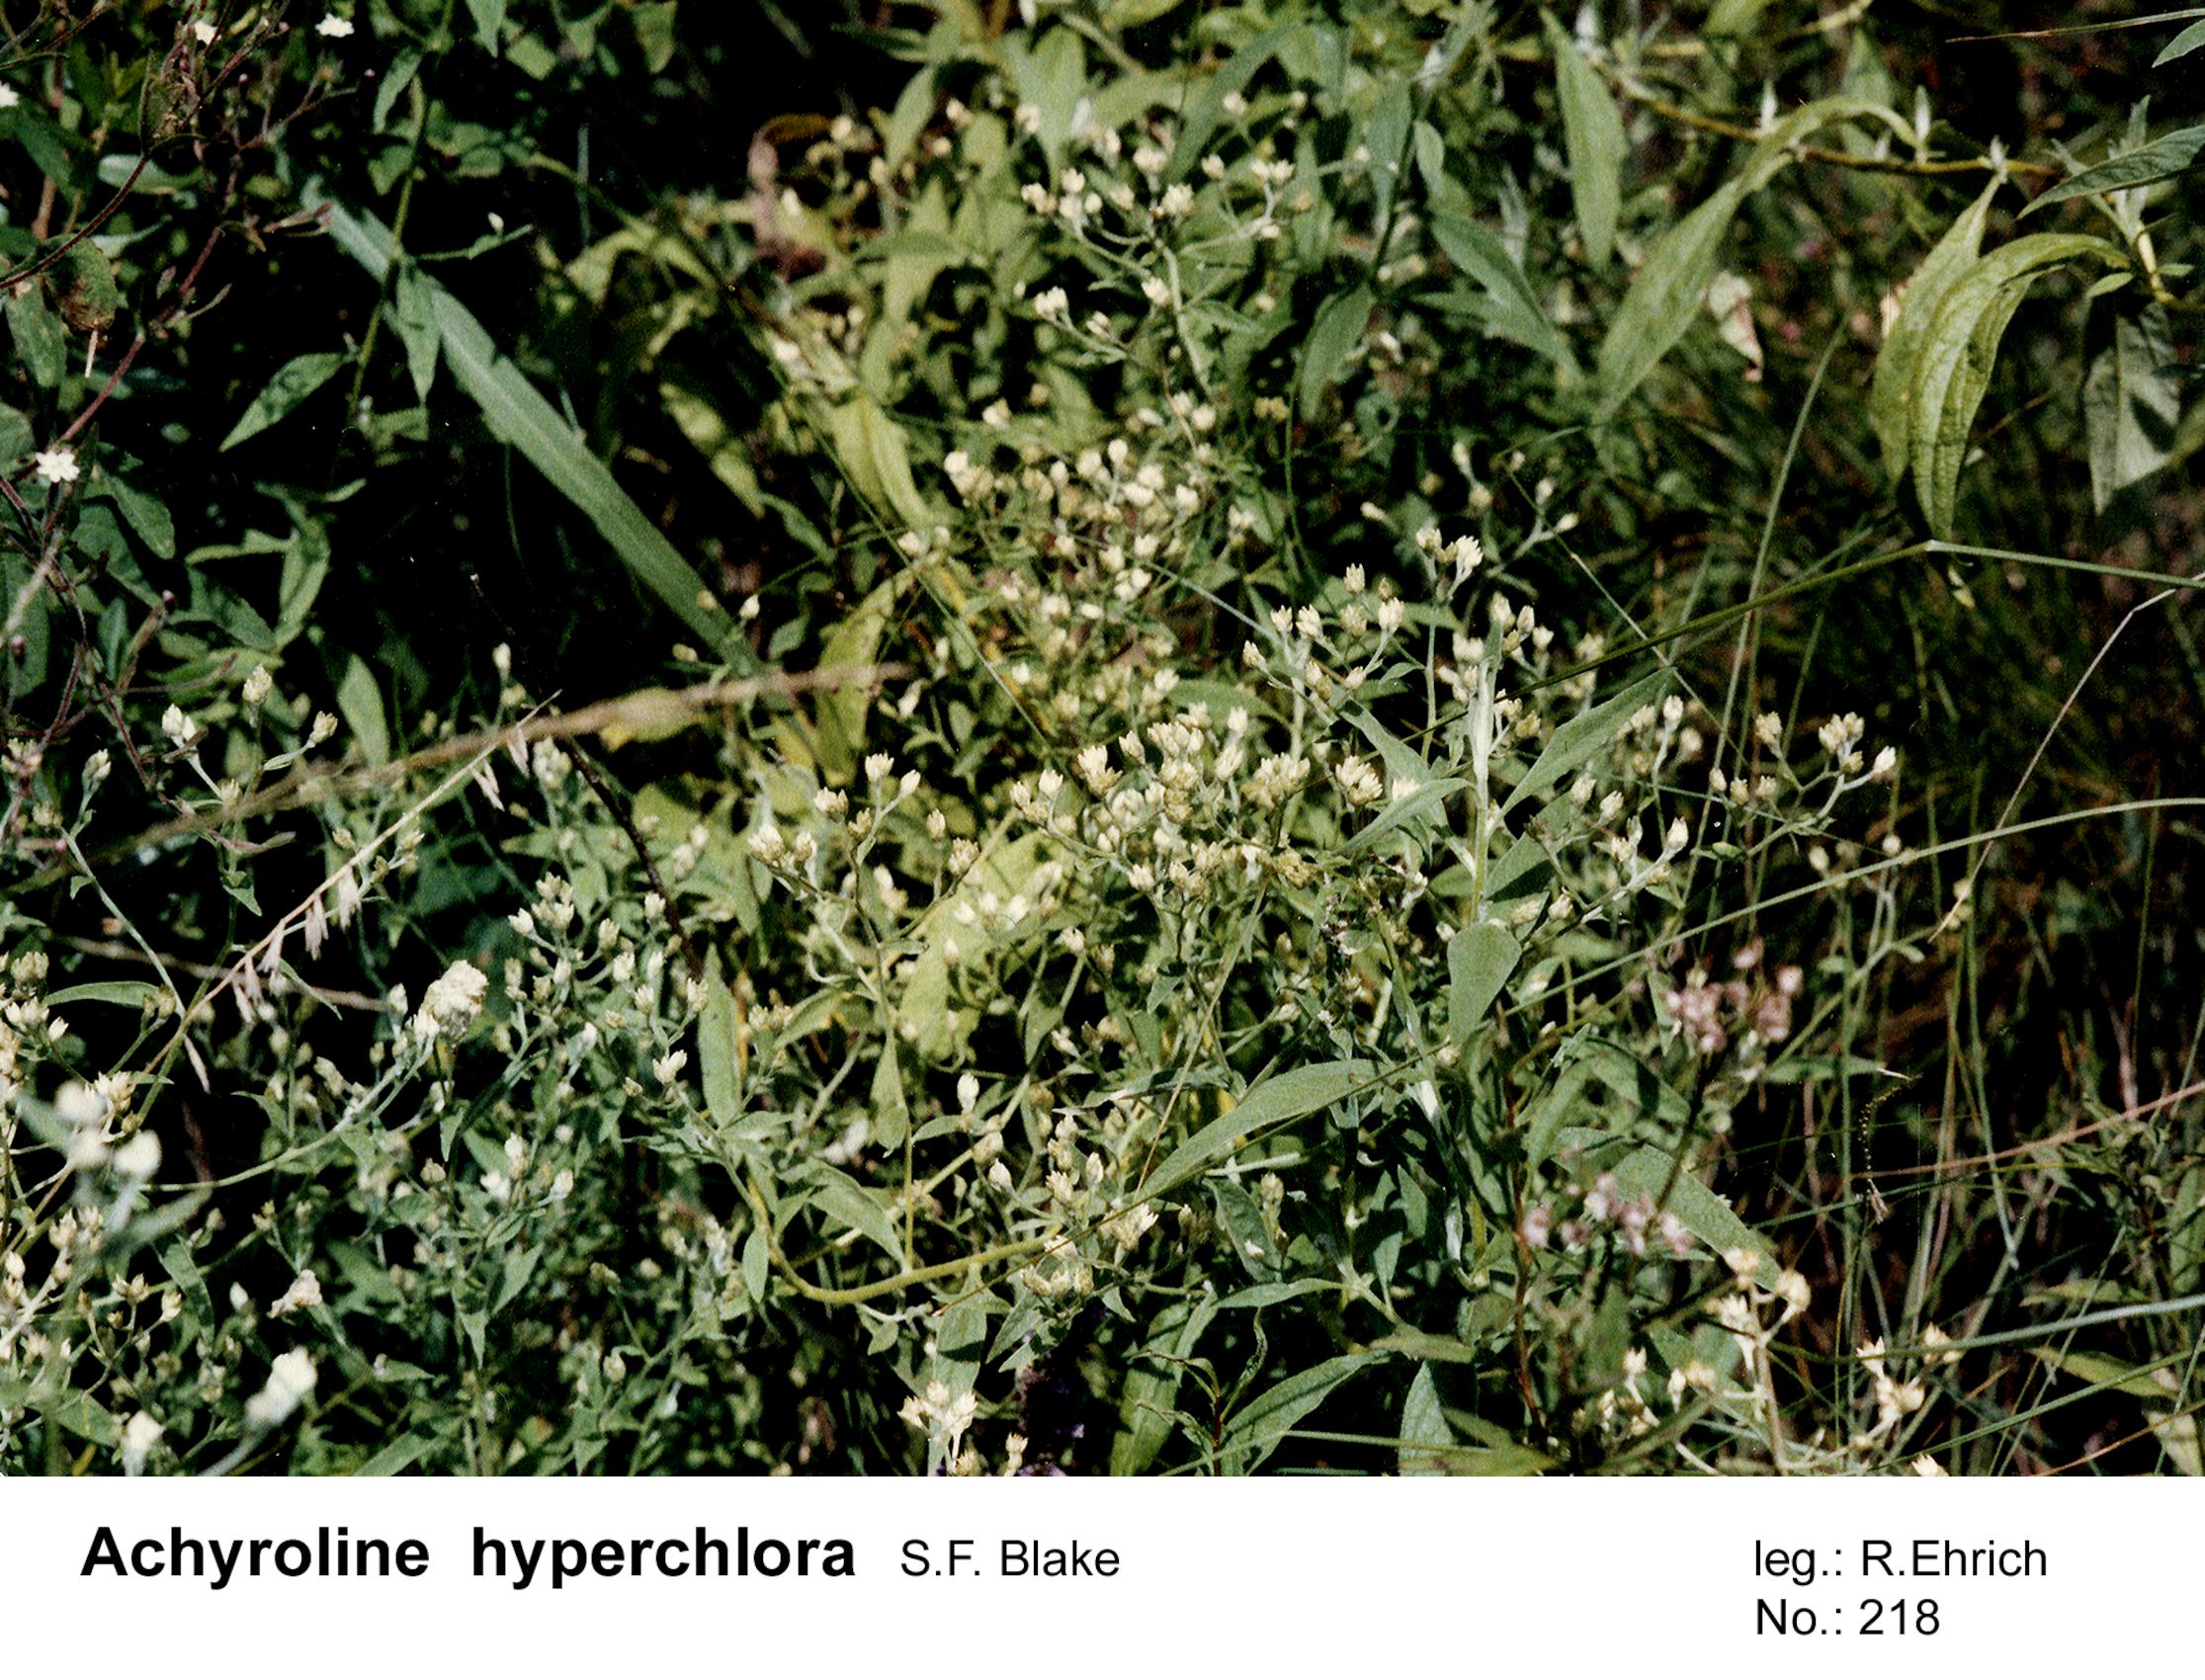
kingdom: Plantae
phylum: Tracheophyta
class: Magnoliopsida
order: Asterales
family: Asteraceae
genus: Achyrocline
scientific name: Achyrocline hyperchlora
